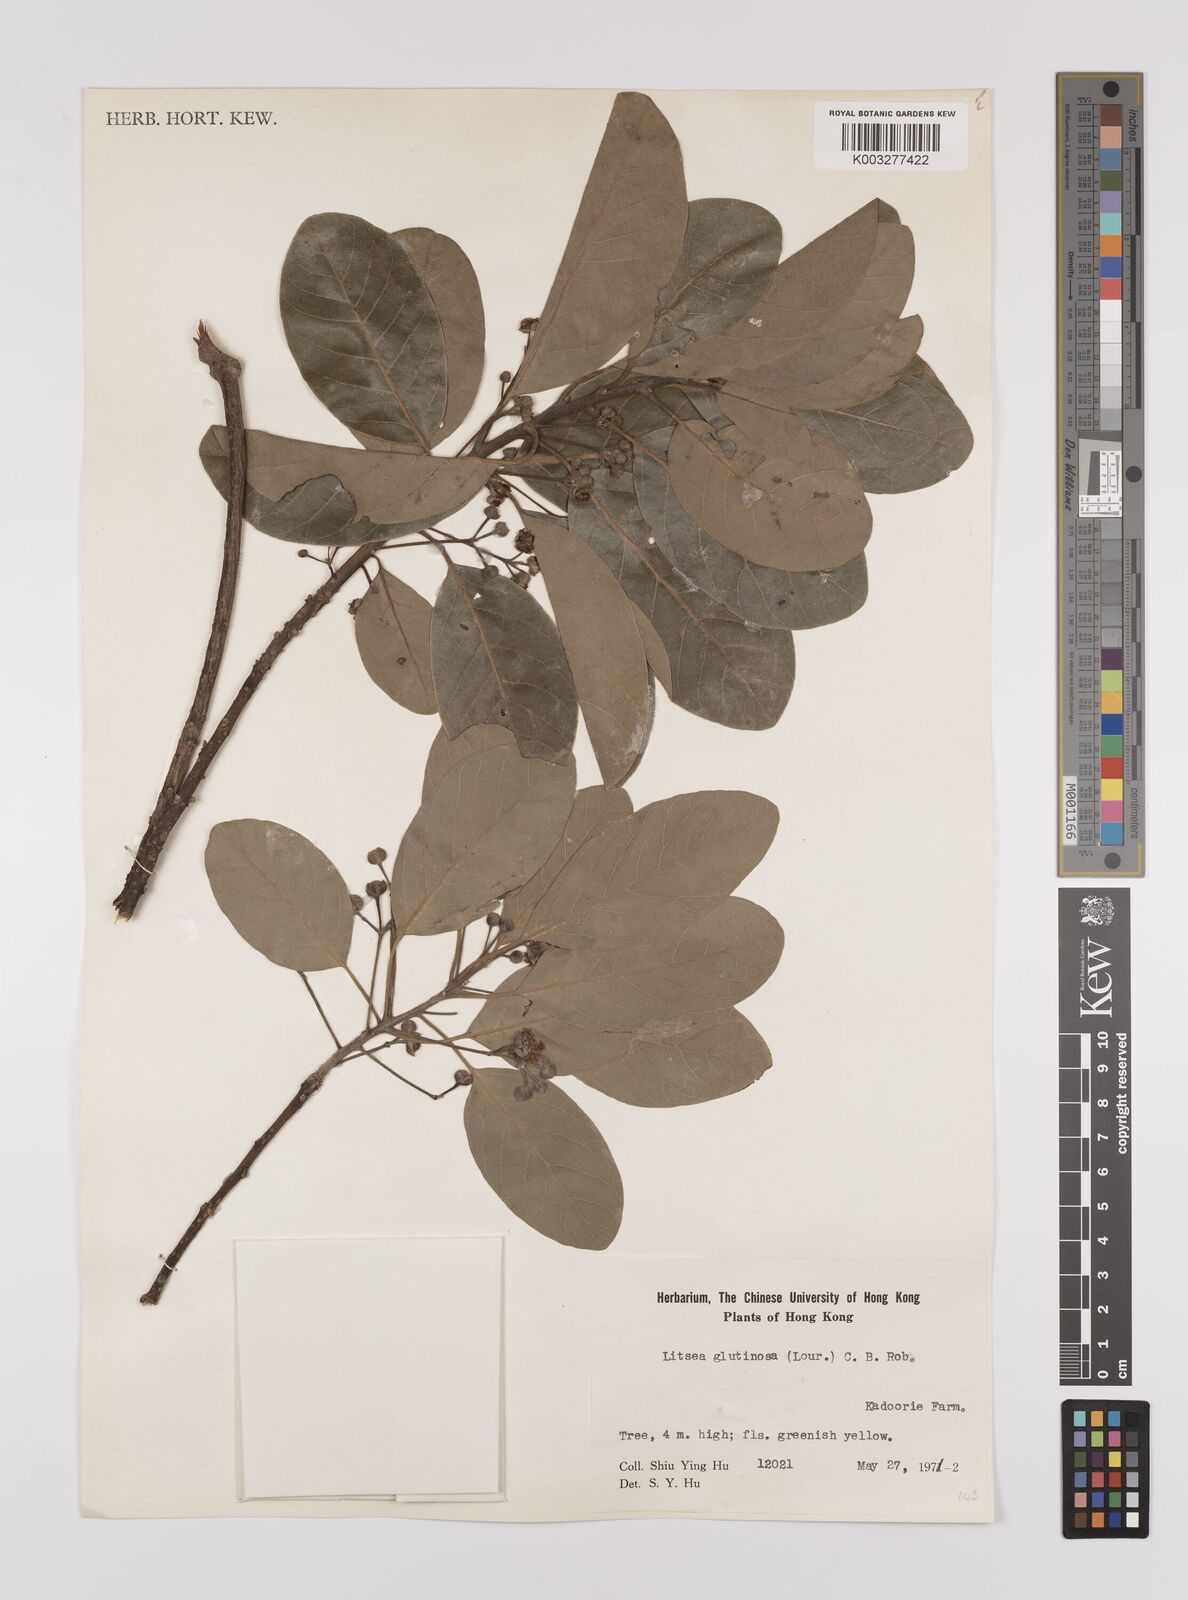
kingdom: Plantae
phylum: Tracheophyta
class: Magnoliopsida
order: Laurales
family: Lauraceae
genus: Litsea
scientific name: Litsea glutinosa
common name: Indian-laurel
